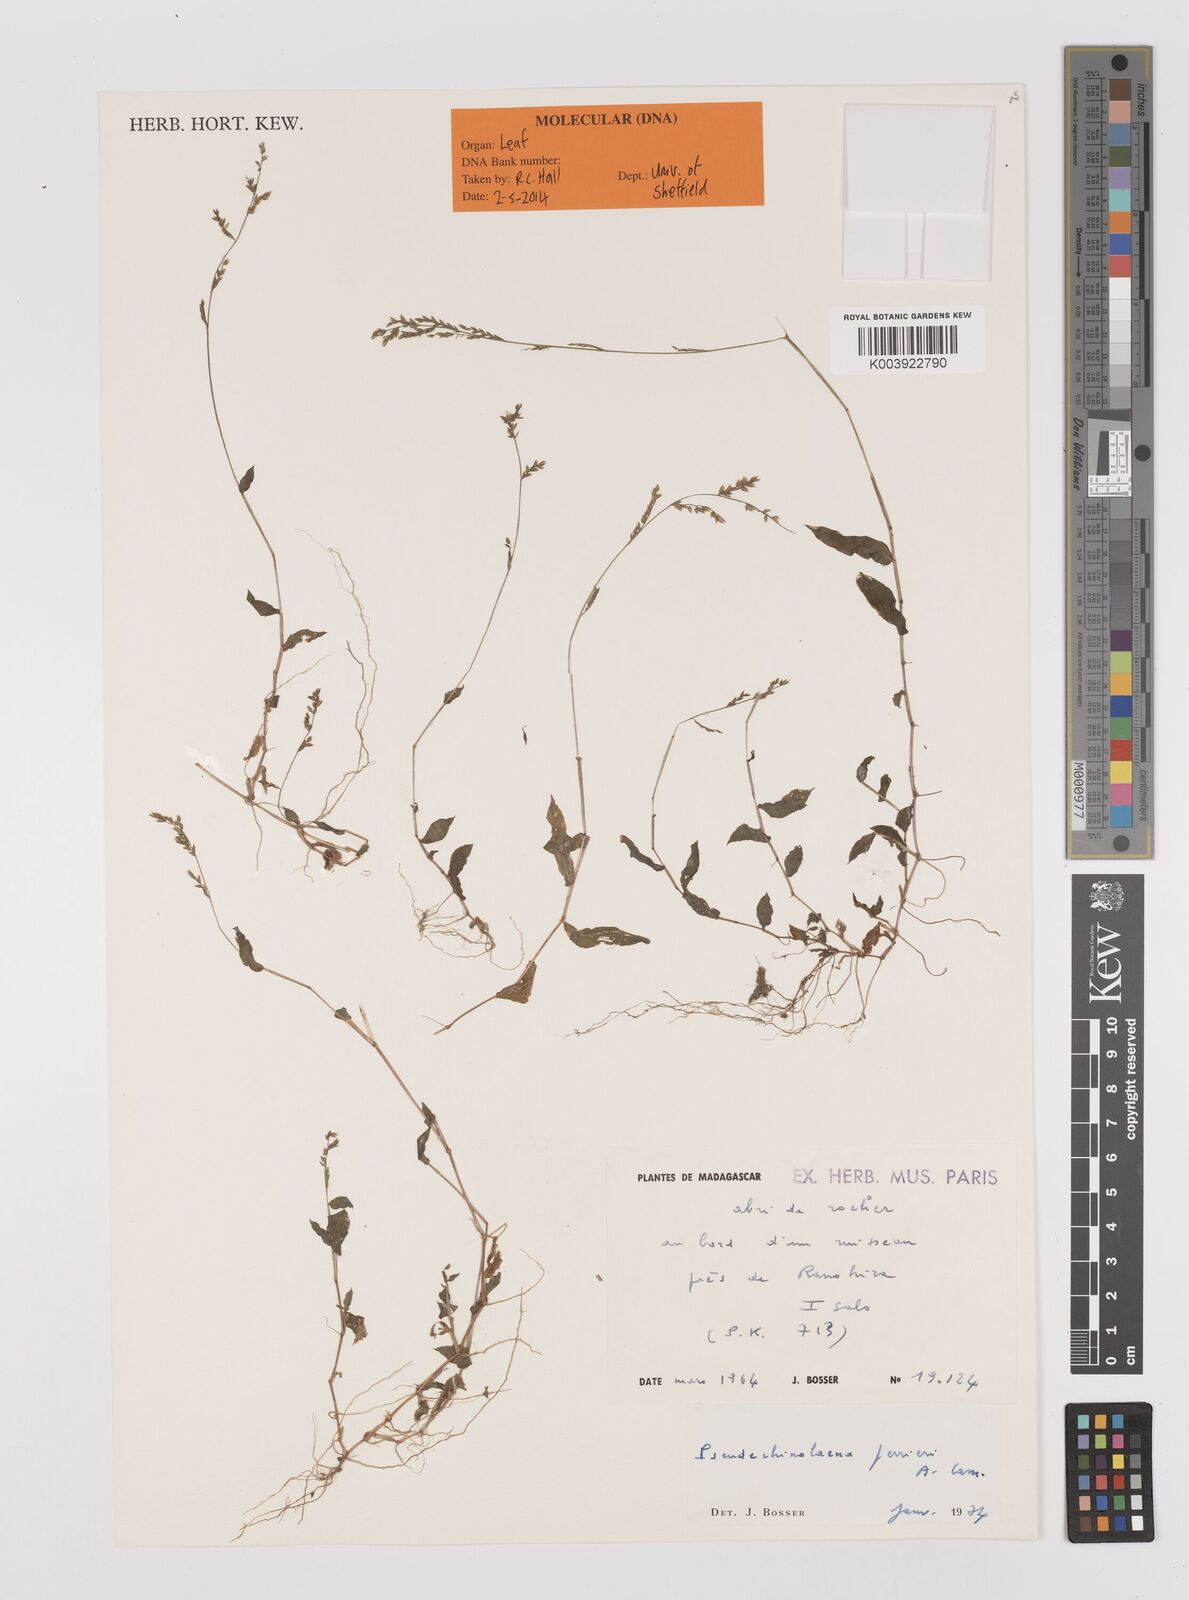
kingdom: Plantae
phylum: Tracheophyta
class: Liliopsida
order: Poales
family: Poaceae
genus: Pseudechinolaena
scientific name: Pseudechinolaena perrieri
